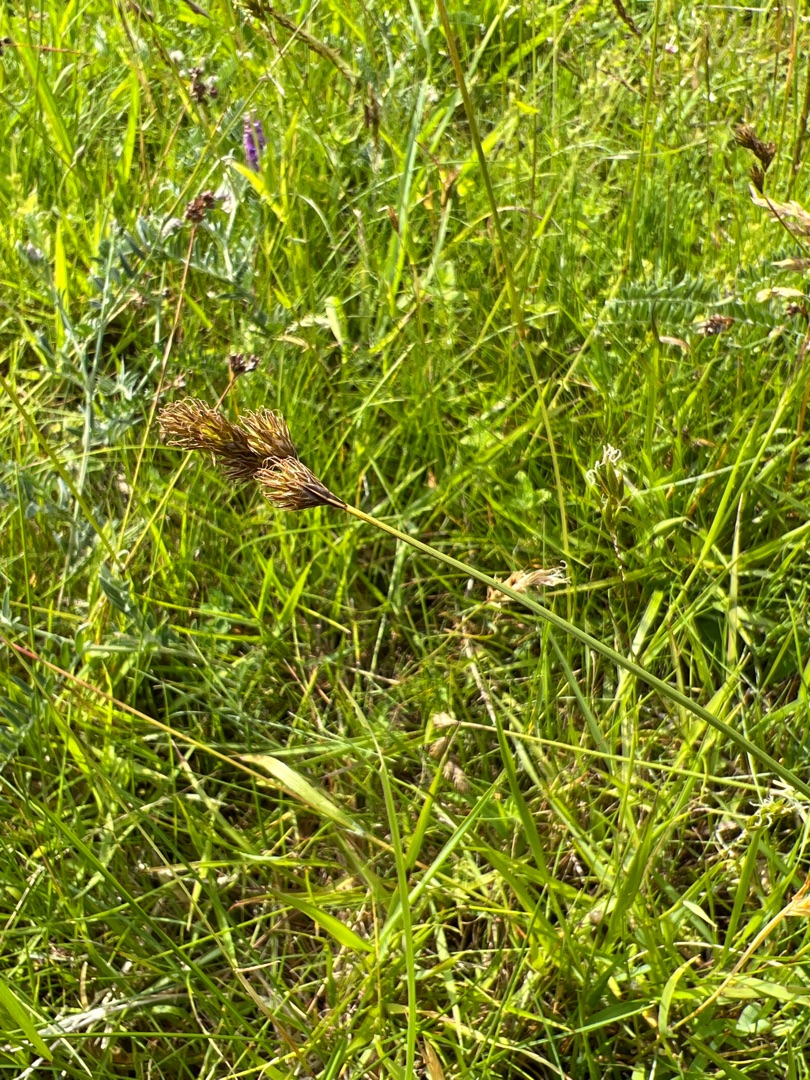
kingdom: Plantae
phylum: Tracheophyta
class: Liliopsida
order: Poales
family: Cyperaceae
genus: Carex
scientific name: Carex leporina
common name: Hare-star
